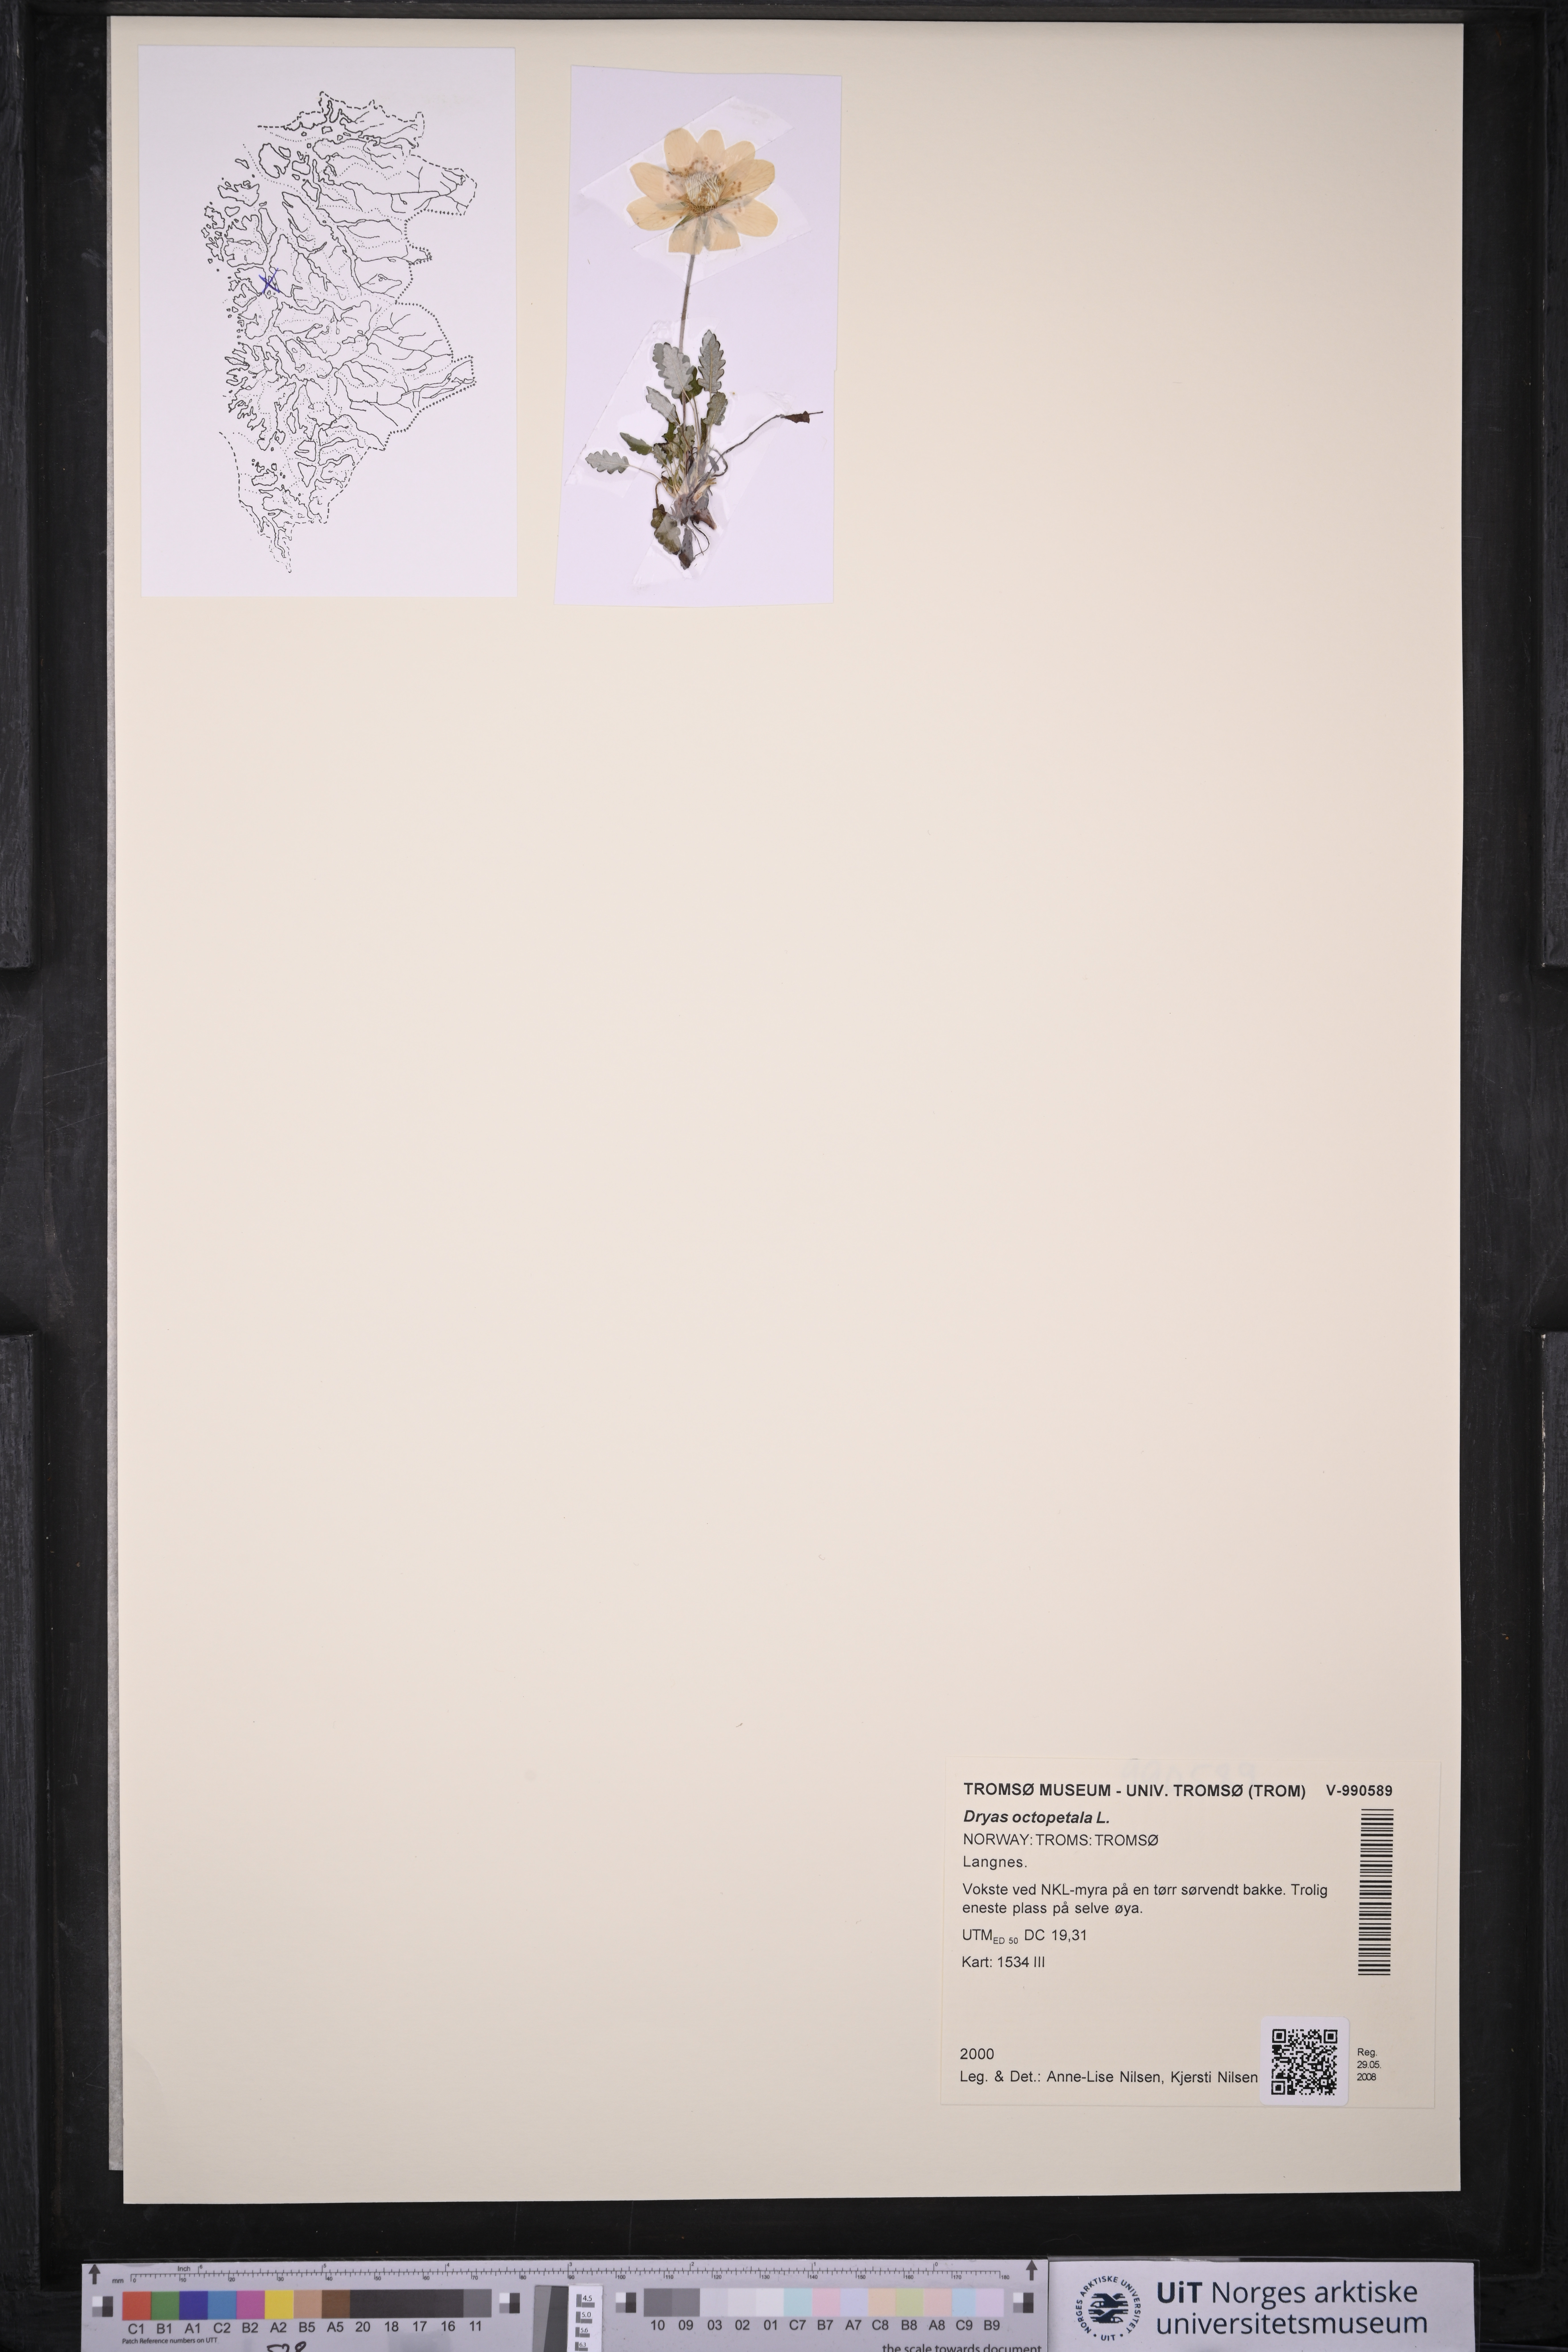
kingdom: Plantae
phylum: Tracheophyta
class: Magnoliopsida
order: Rosales
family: Rosaceae
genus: Dryas
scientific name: Dryas octopetala
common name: Eight-petal mountain-avens
